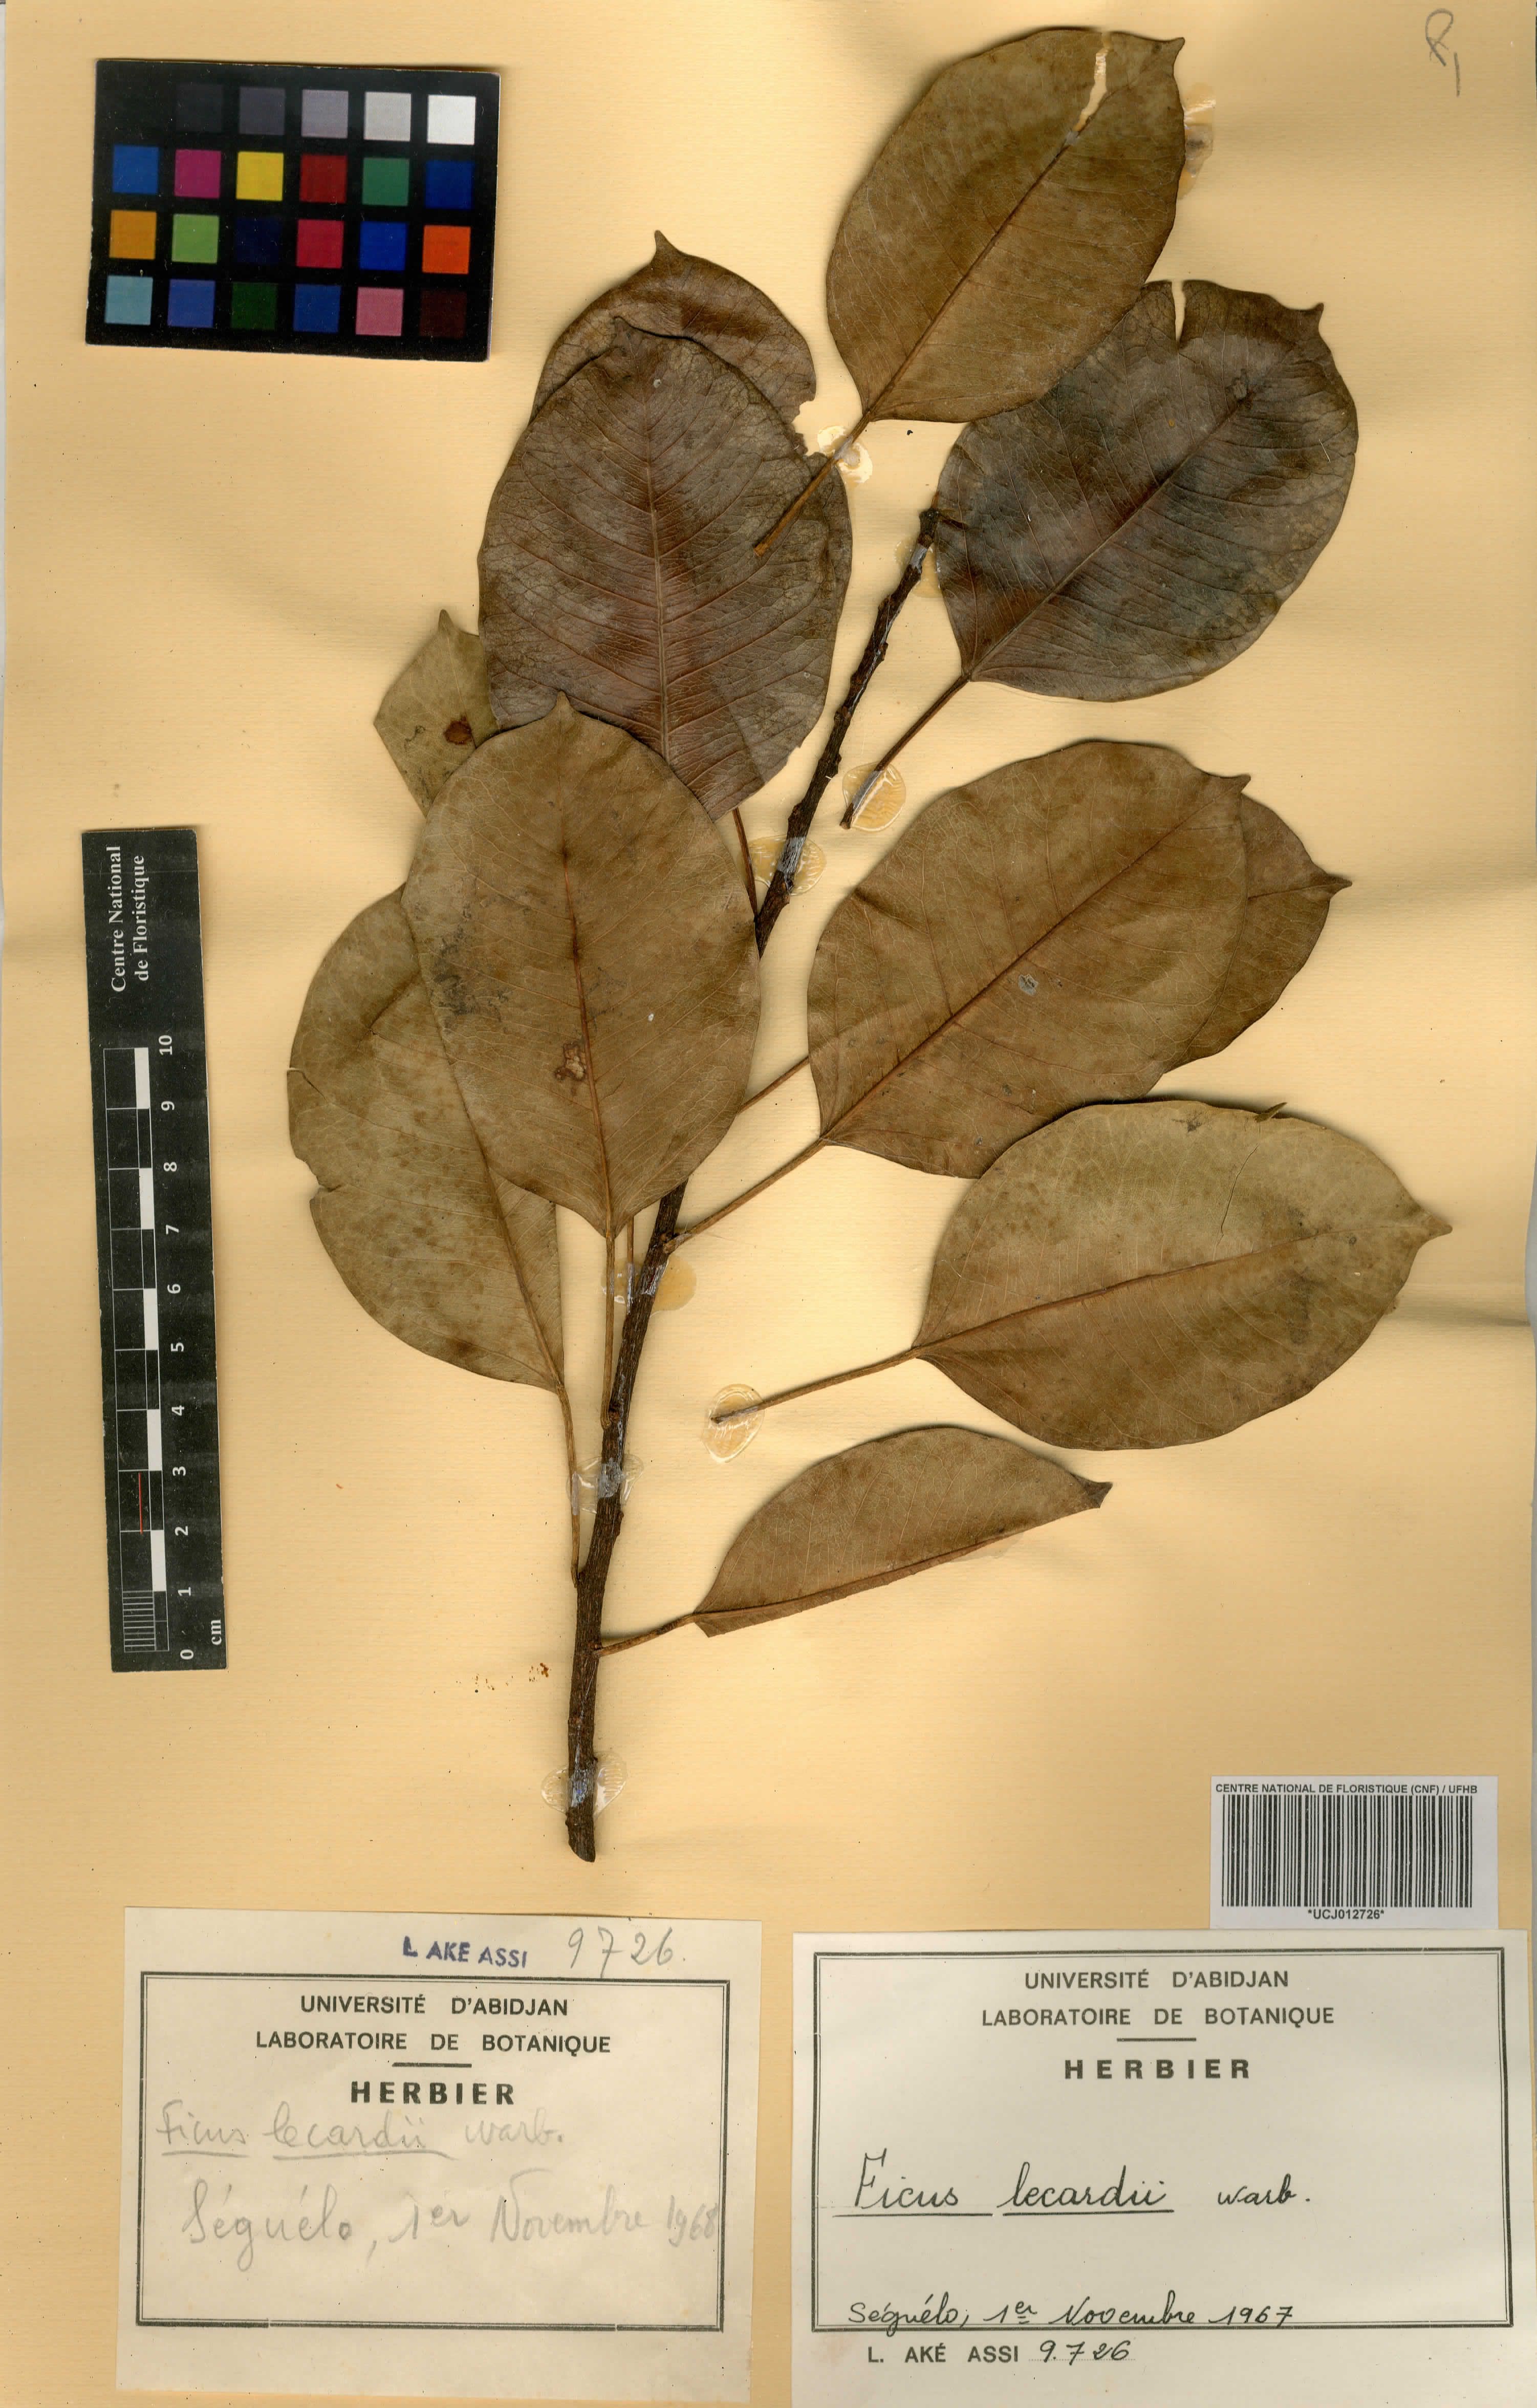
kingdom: Plantae
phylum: Tracheophyta
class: Magnoliopsida
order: Rosales
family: Moraceae
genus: Ficus
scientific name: Ficus cordata
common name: Namaqua rock fig
